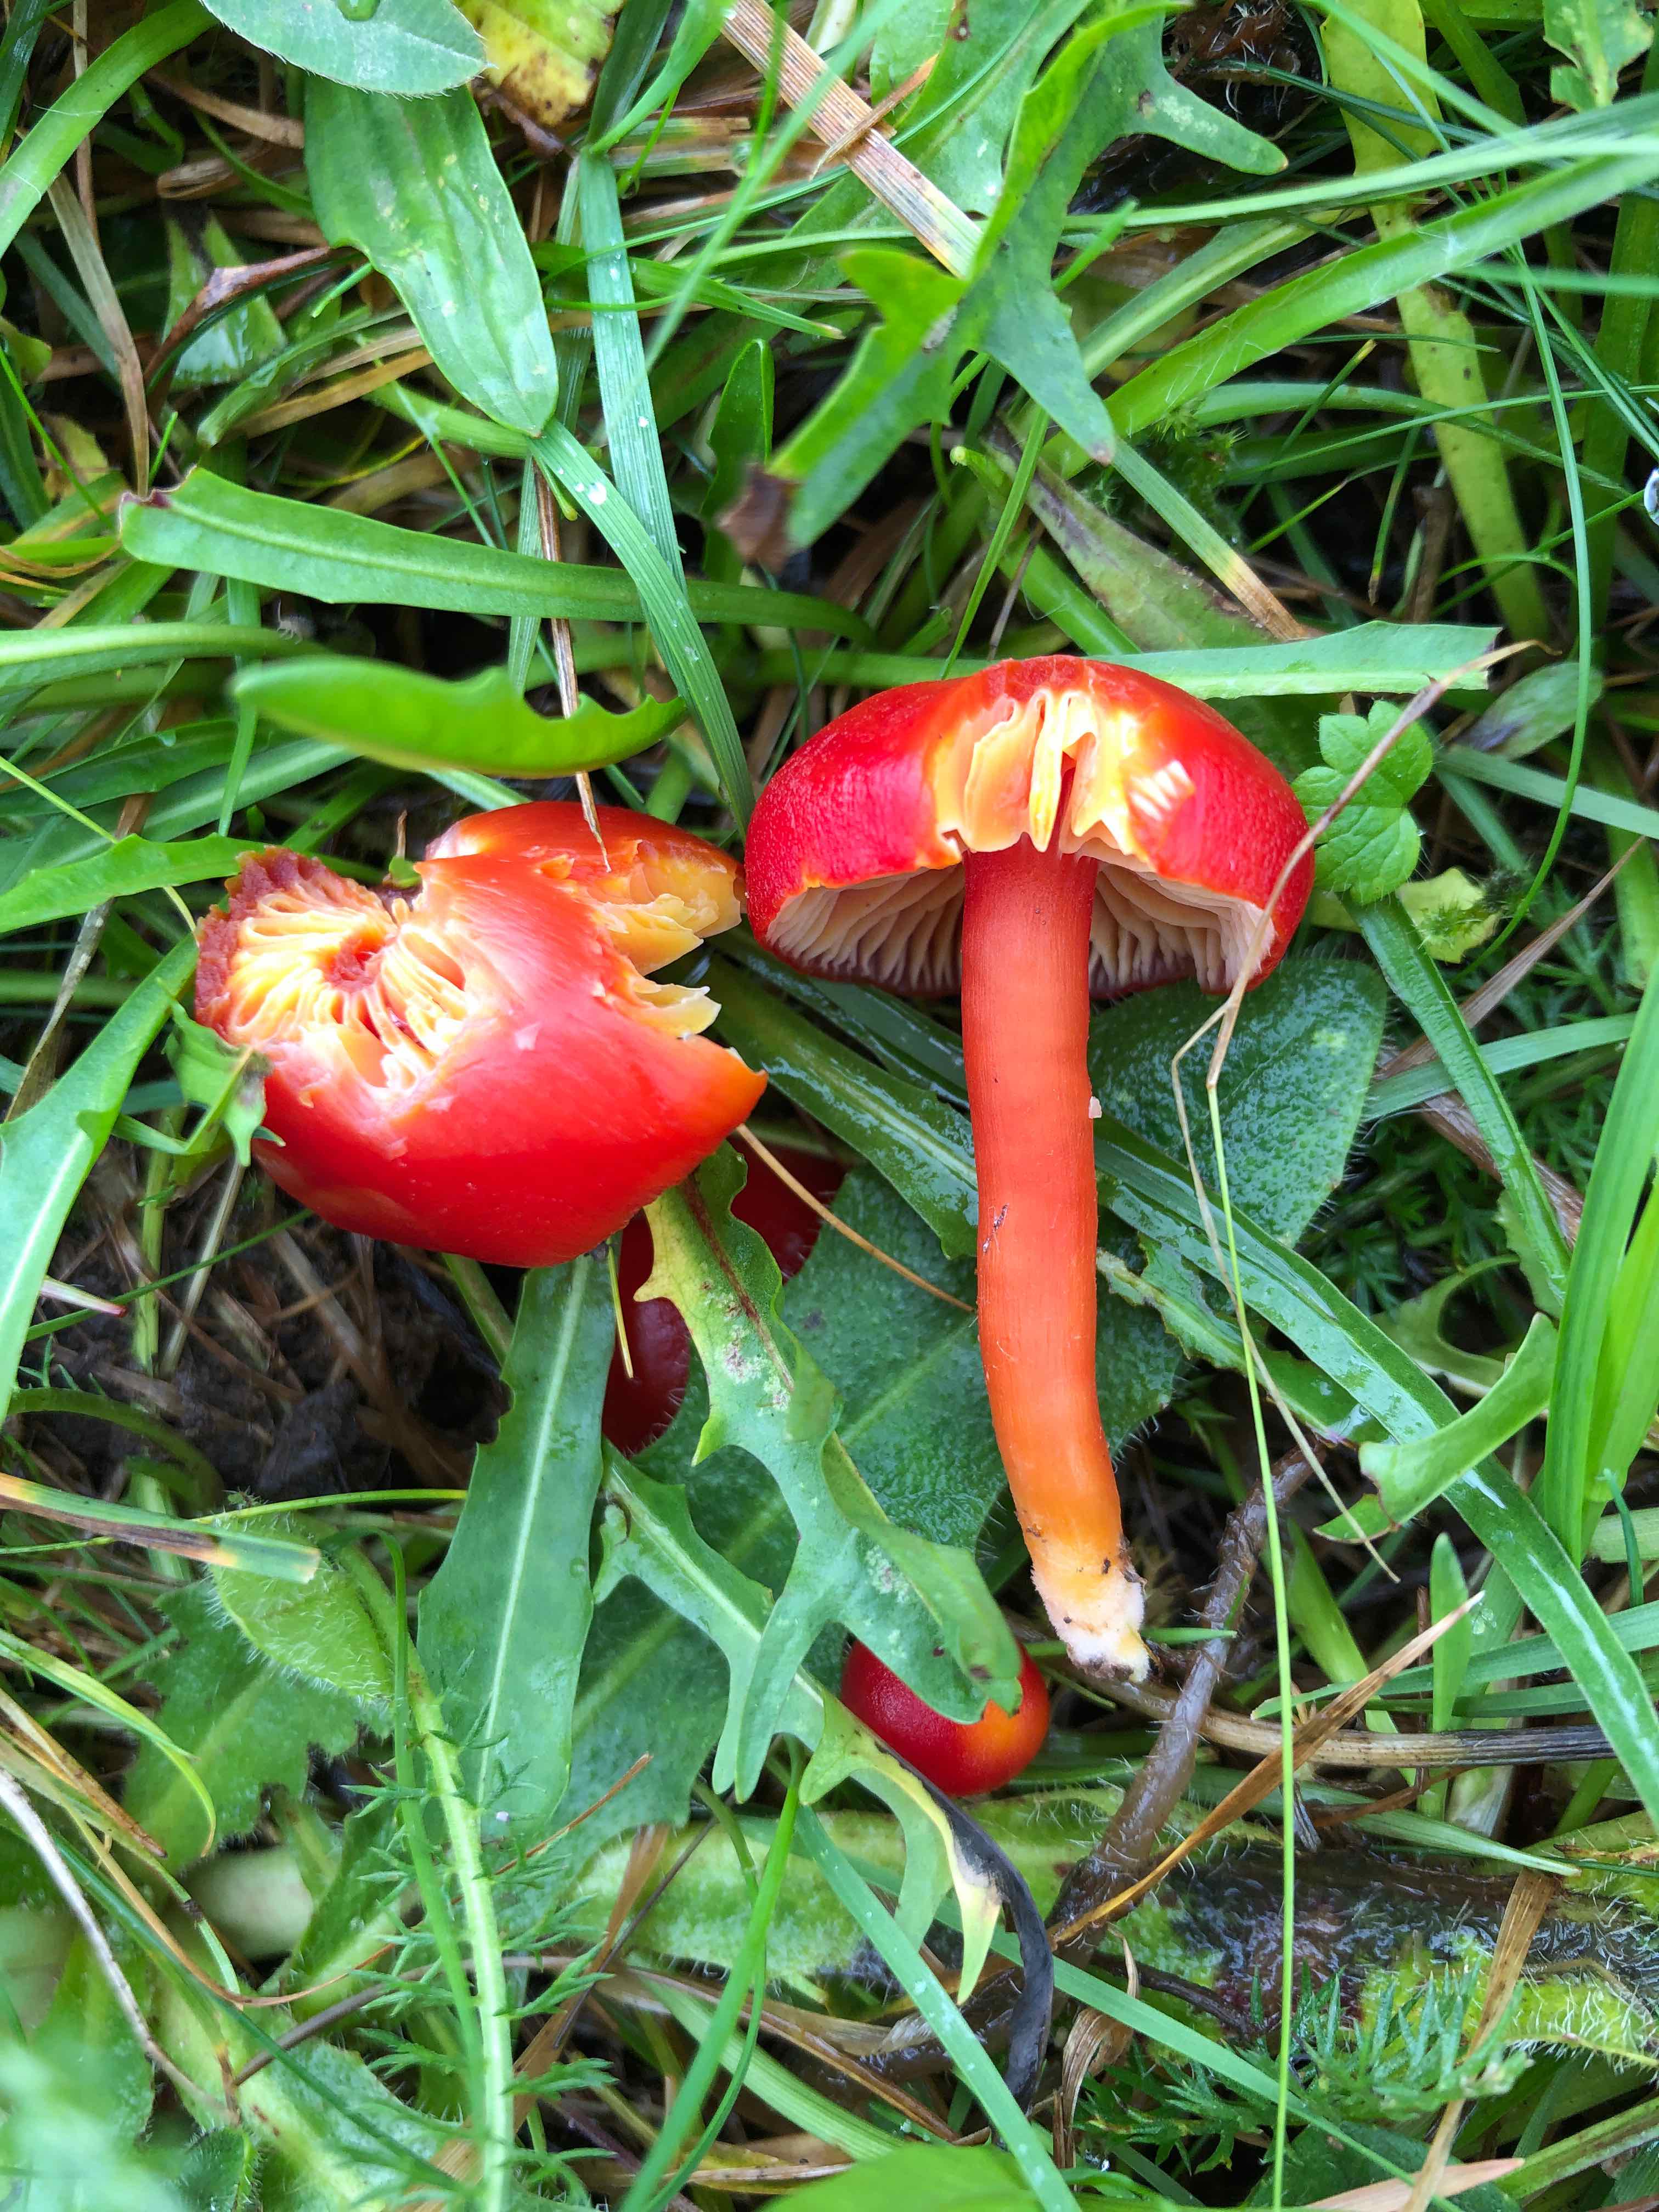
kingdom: Fungi
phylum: Basidiomycota
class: Agaricomycetes
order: Agaricales
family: Hygrophoraceae
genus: Hygrocybe
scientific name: Hygrocybe coccinea
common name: cinnober-vokshat
